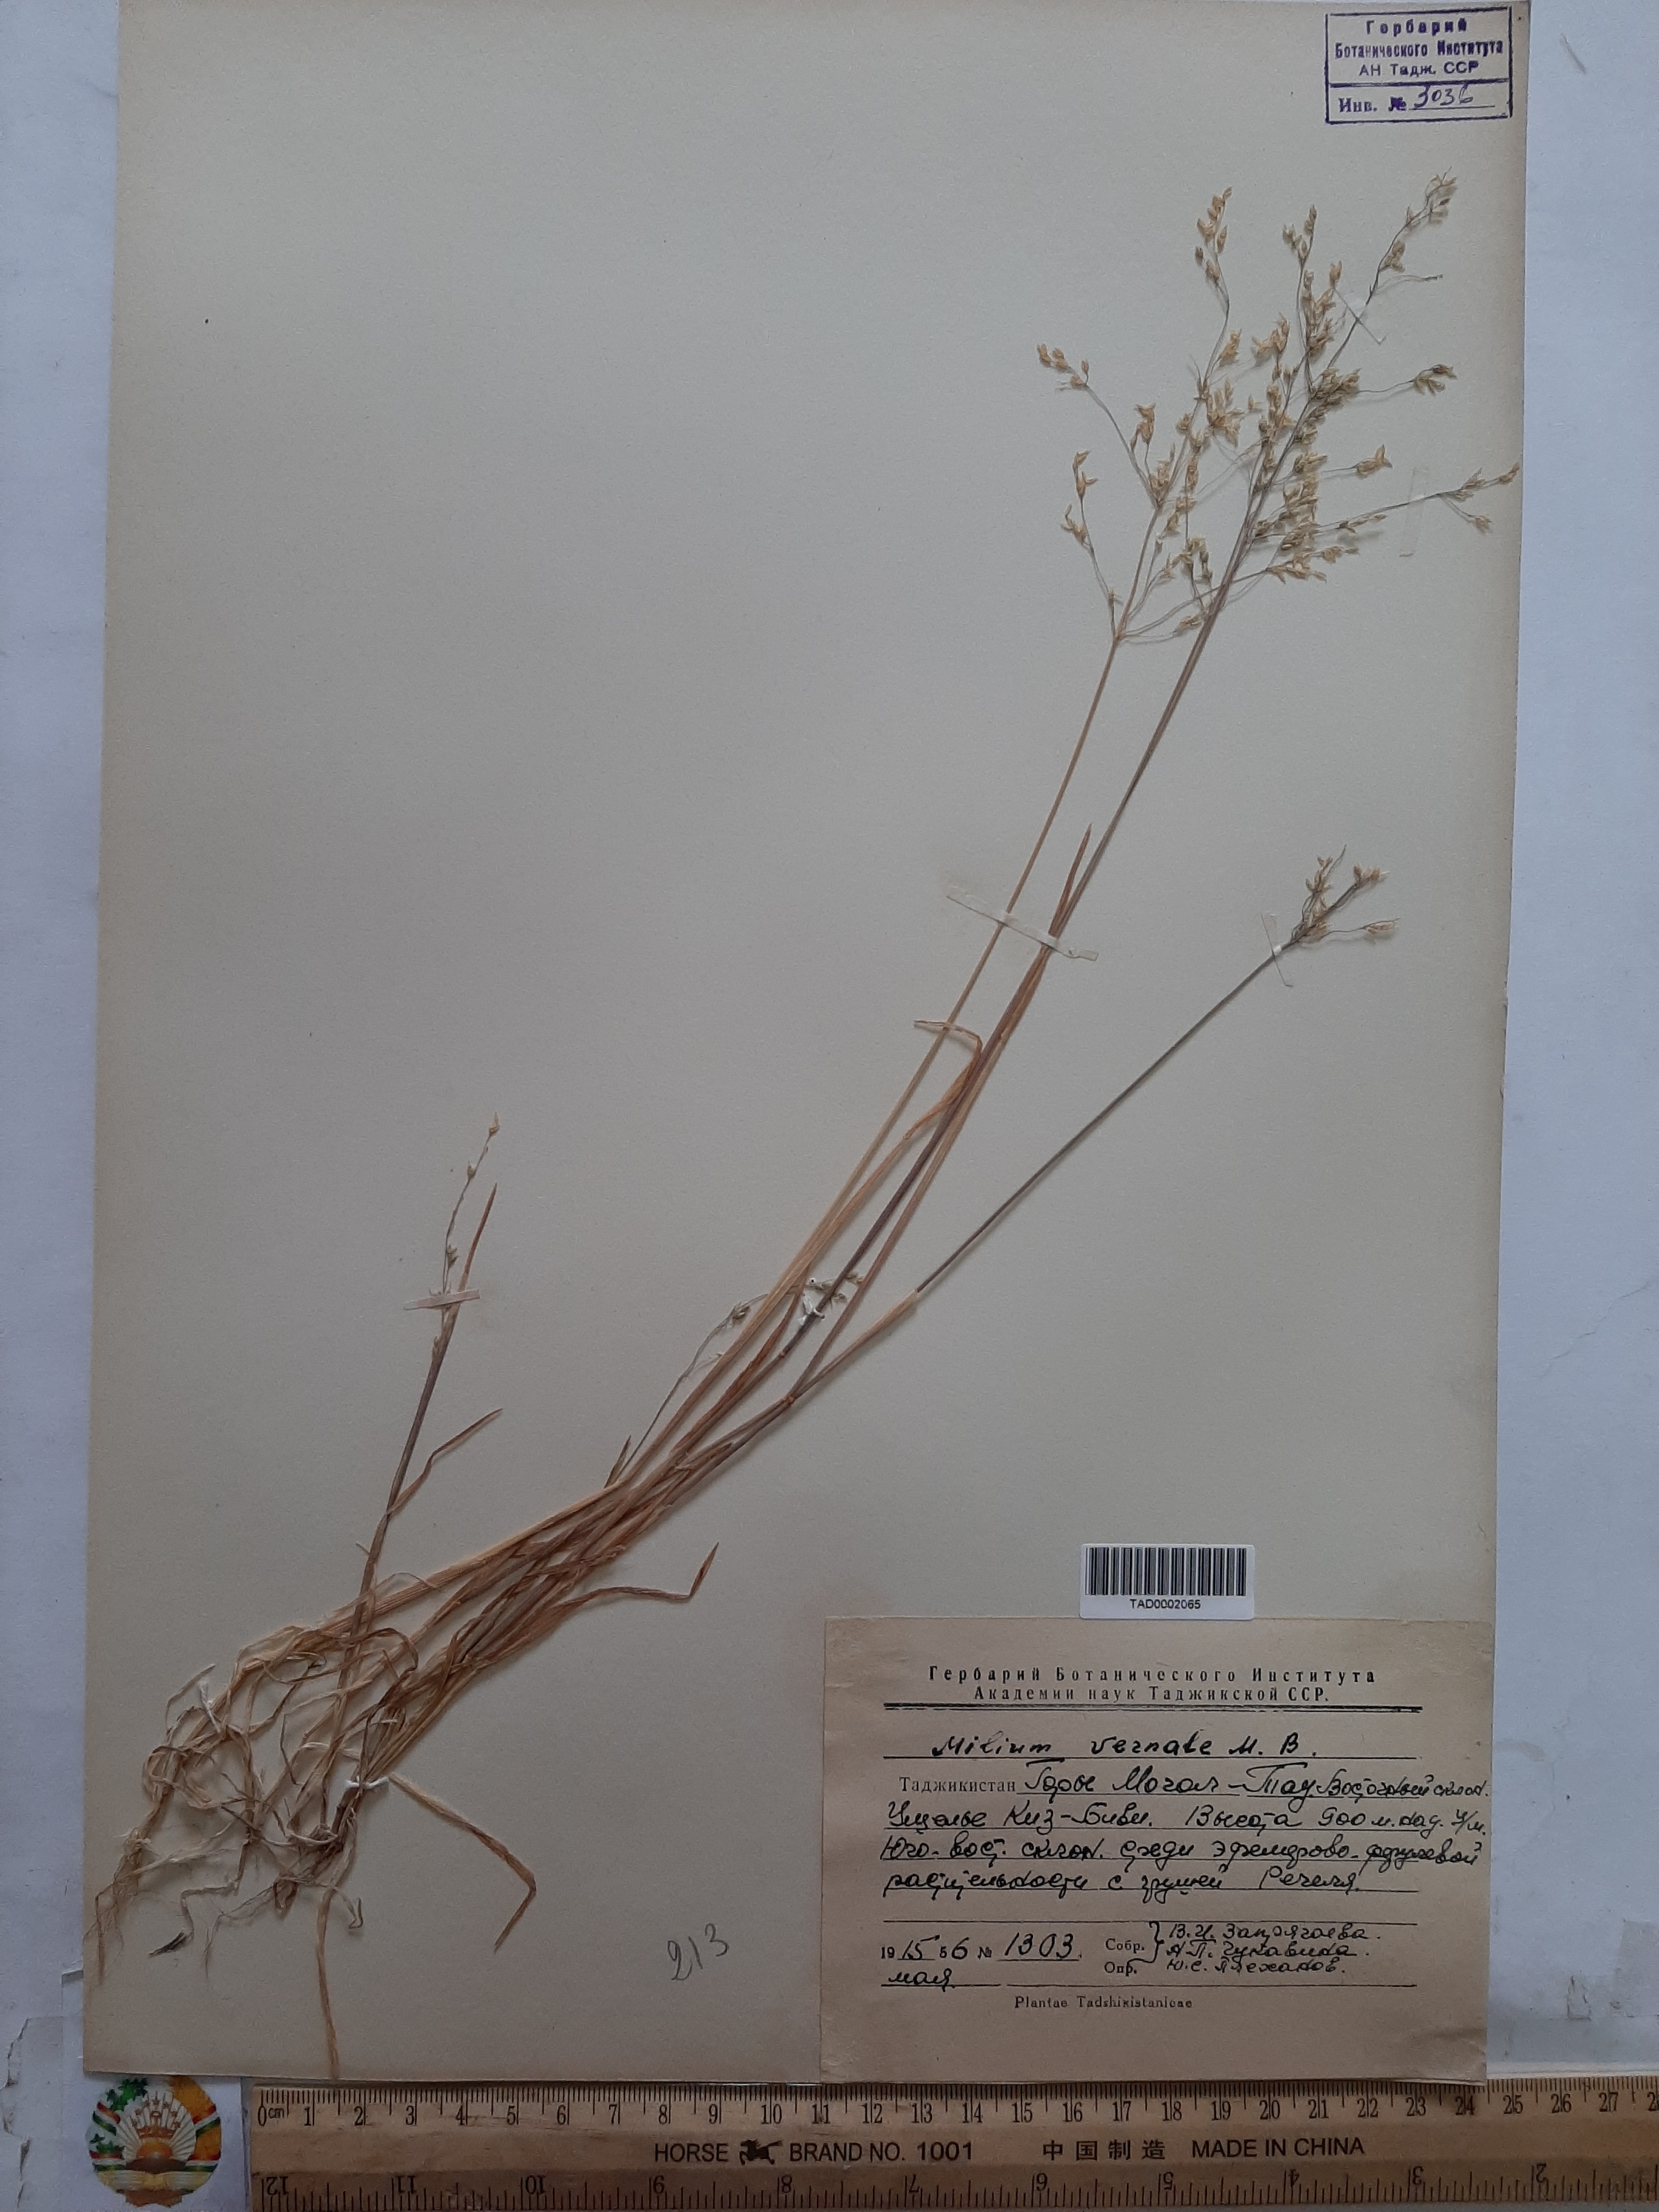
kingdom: Plantae
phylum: Tracheophyta
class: Liliopsida
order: Poales
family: Poaceae
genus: Milium
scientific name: Milium vernale
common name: Early millet
